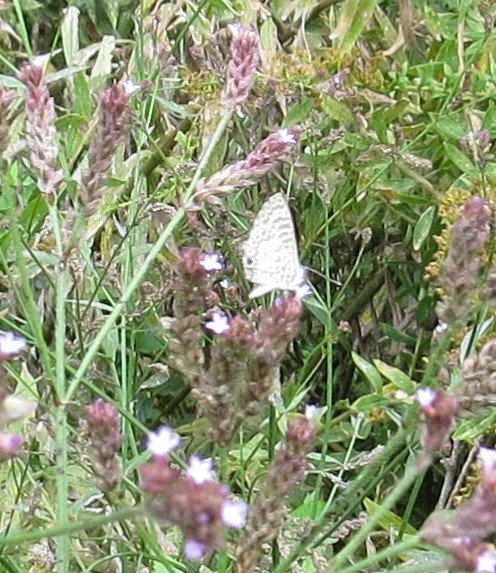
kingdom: Animalia
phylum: Arthropoda
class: Insecta
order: Lepidoptera
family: Lycaenidae
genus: Leptotes
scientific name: Leptotes cassius
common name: Cassius Blue
